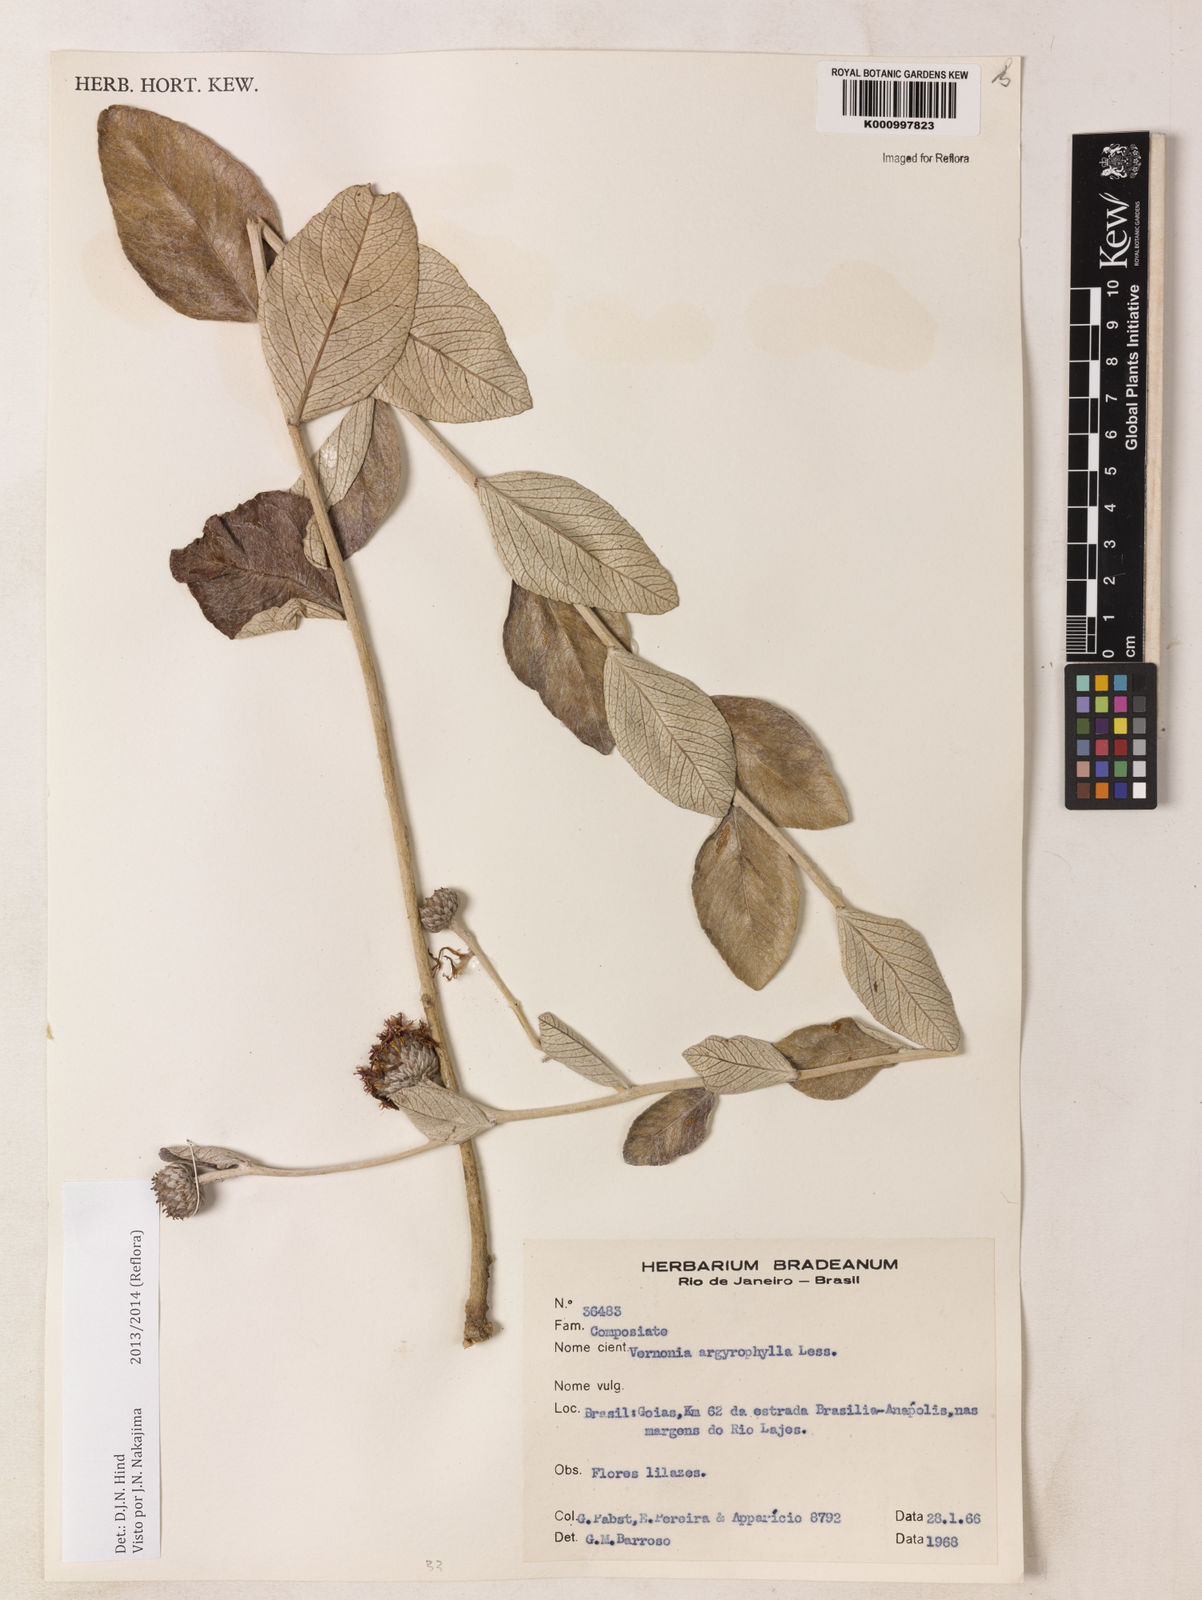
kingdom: Plantae
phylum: Tracheophyta
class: Magnoliopsida
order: Asterales
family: Asteraceae
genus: Lessingianthus
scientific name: Lessingianthus argyrophyllus
